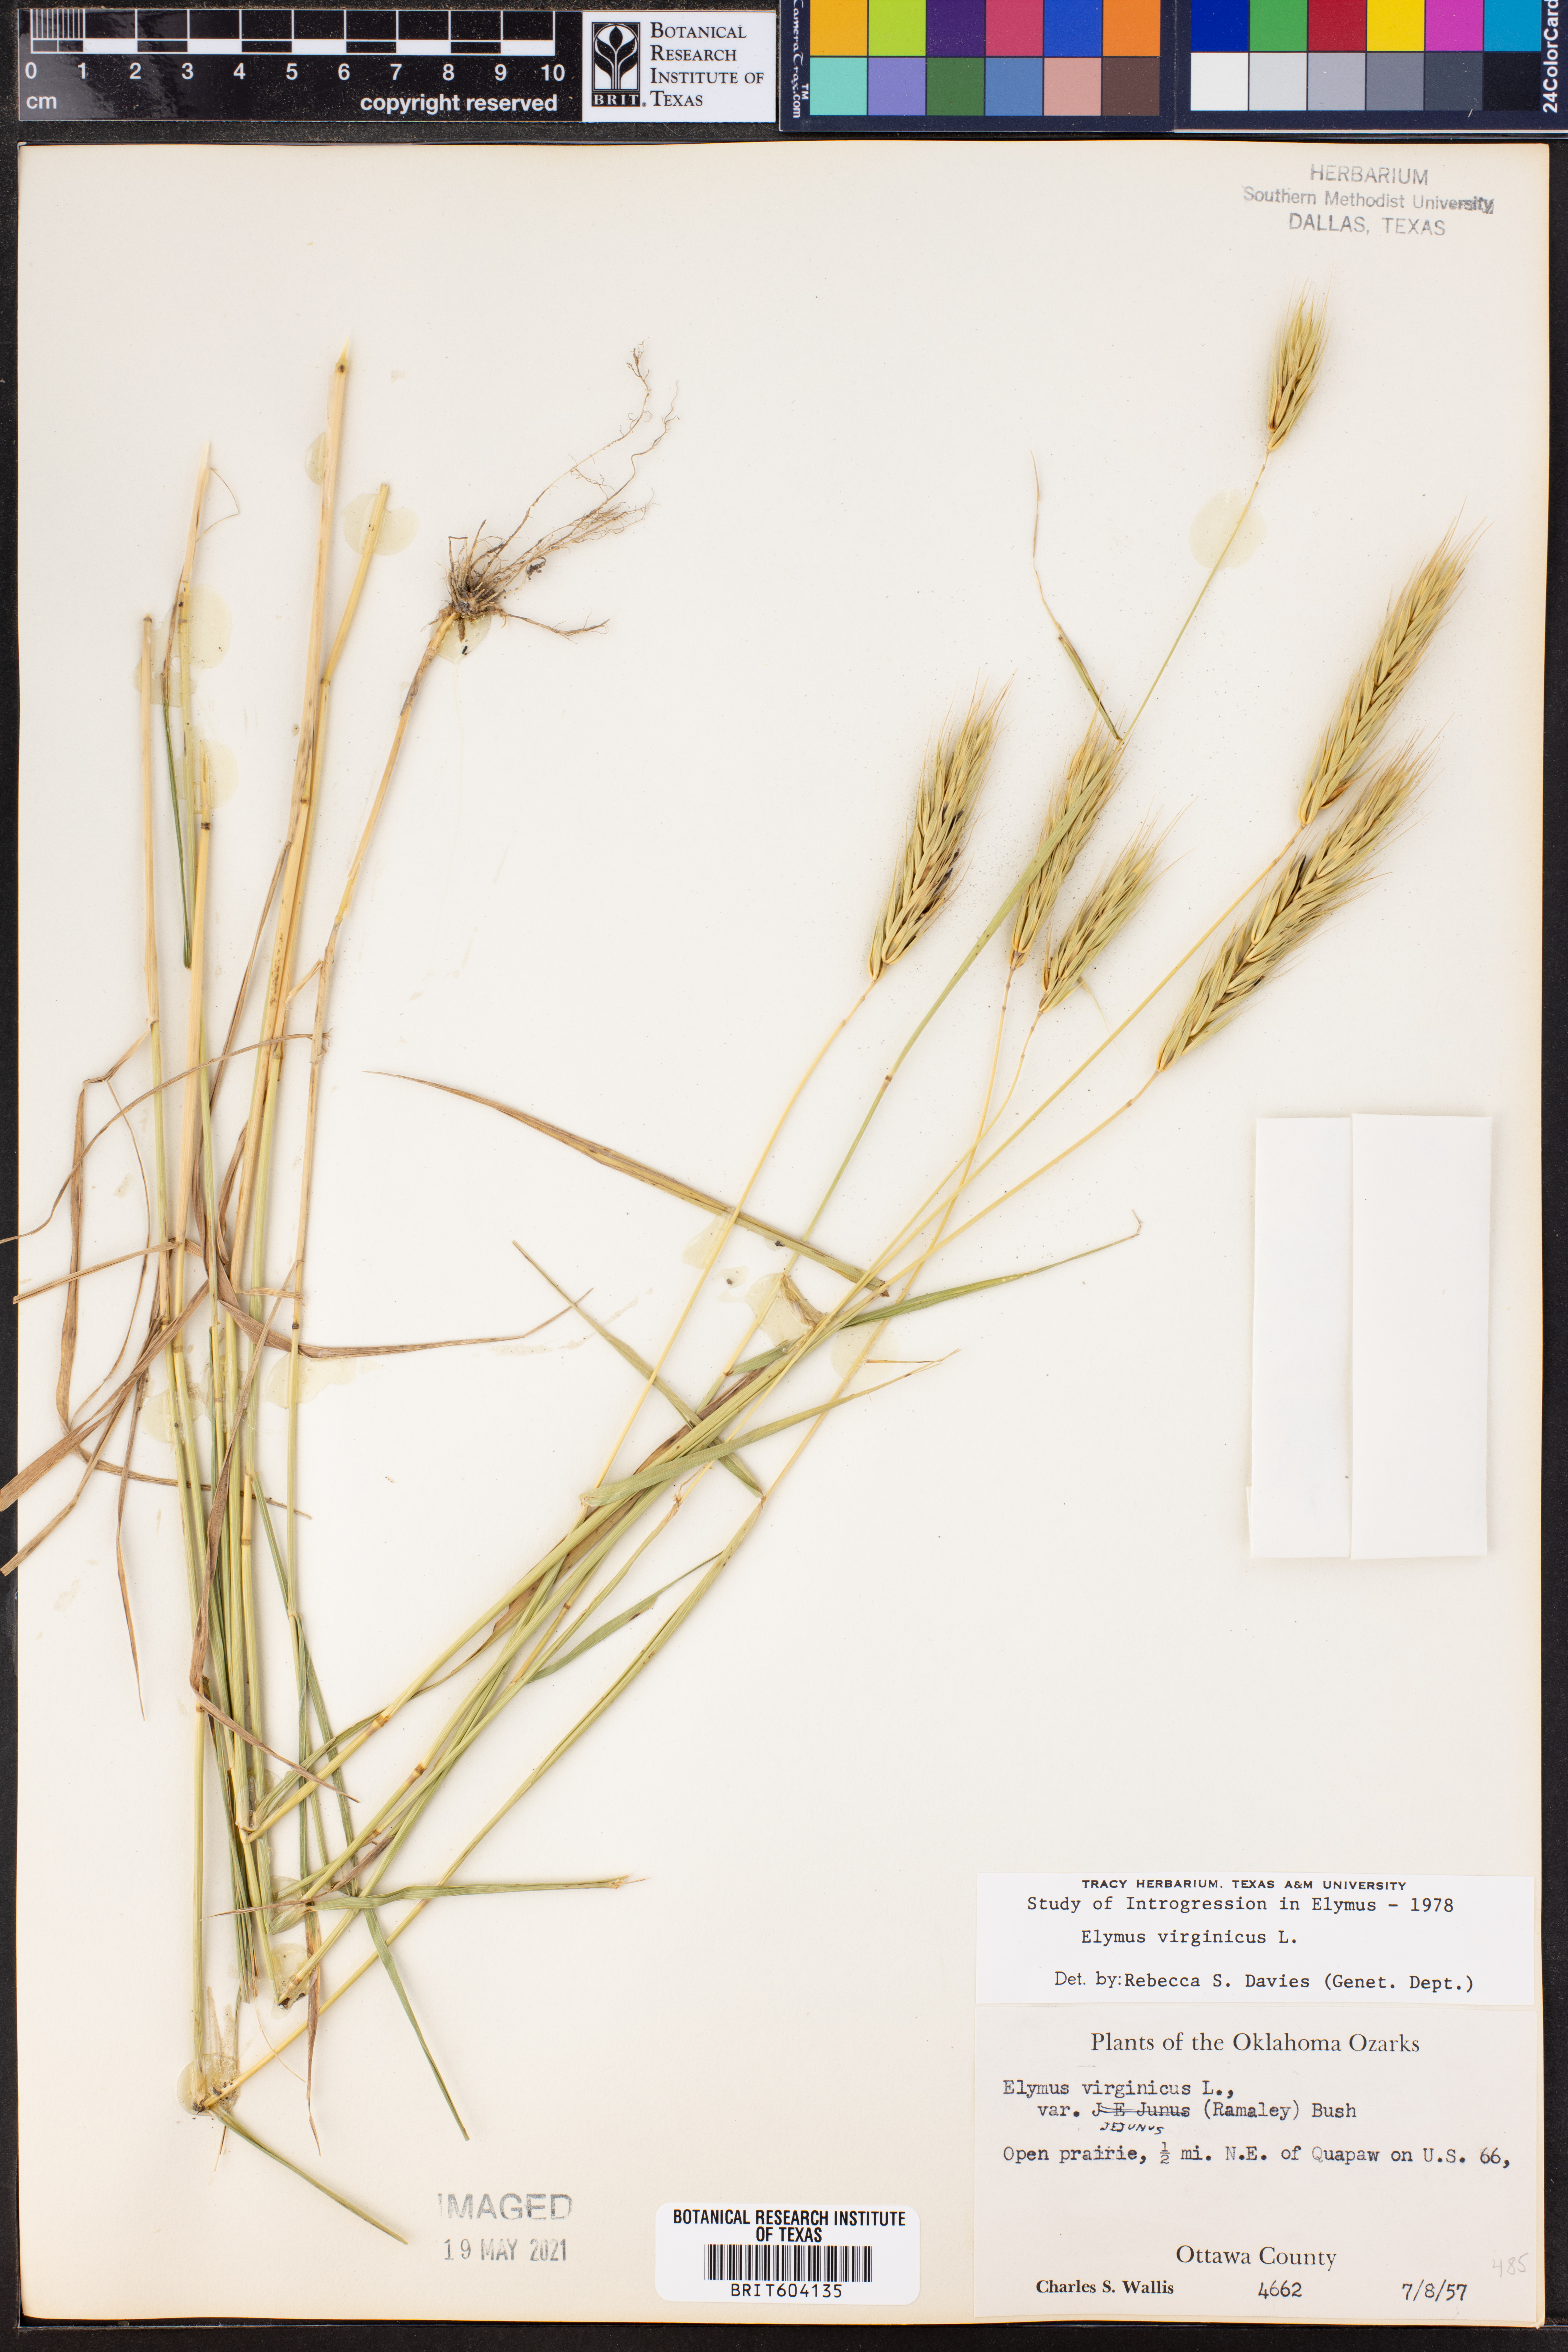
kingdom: Plantae
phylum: Tracheophyta
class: Liliopsida
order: Poales
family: Poaceae
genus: Elymus
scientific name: Elymus virginicus
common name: Common eastern wildrye
